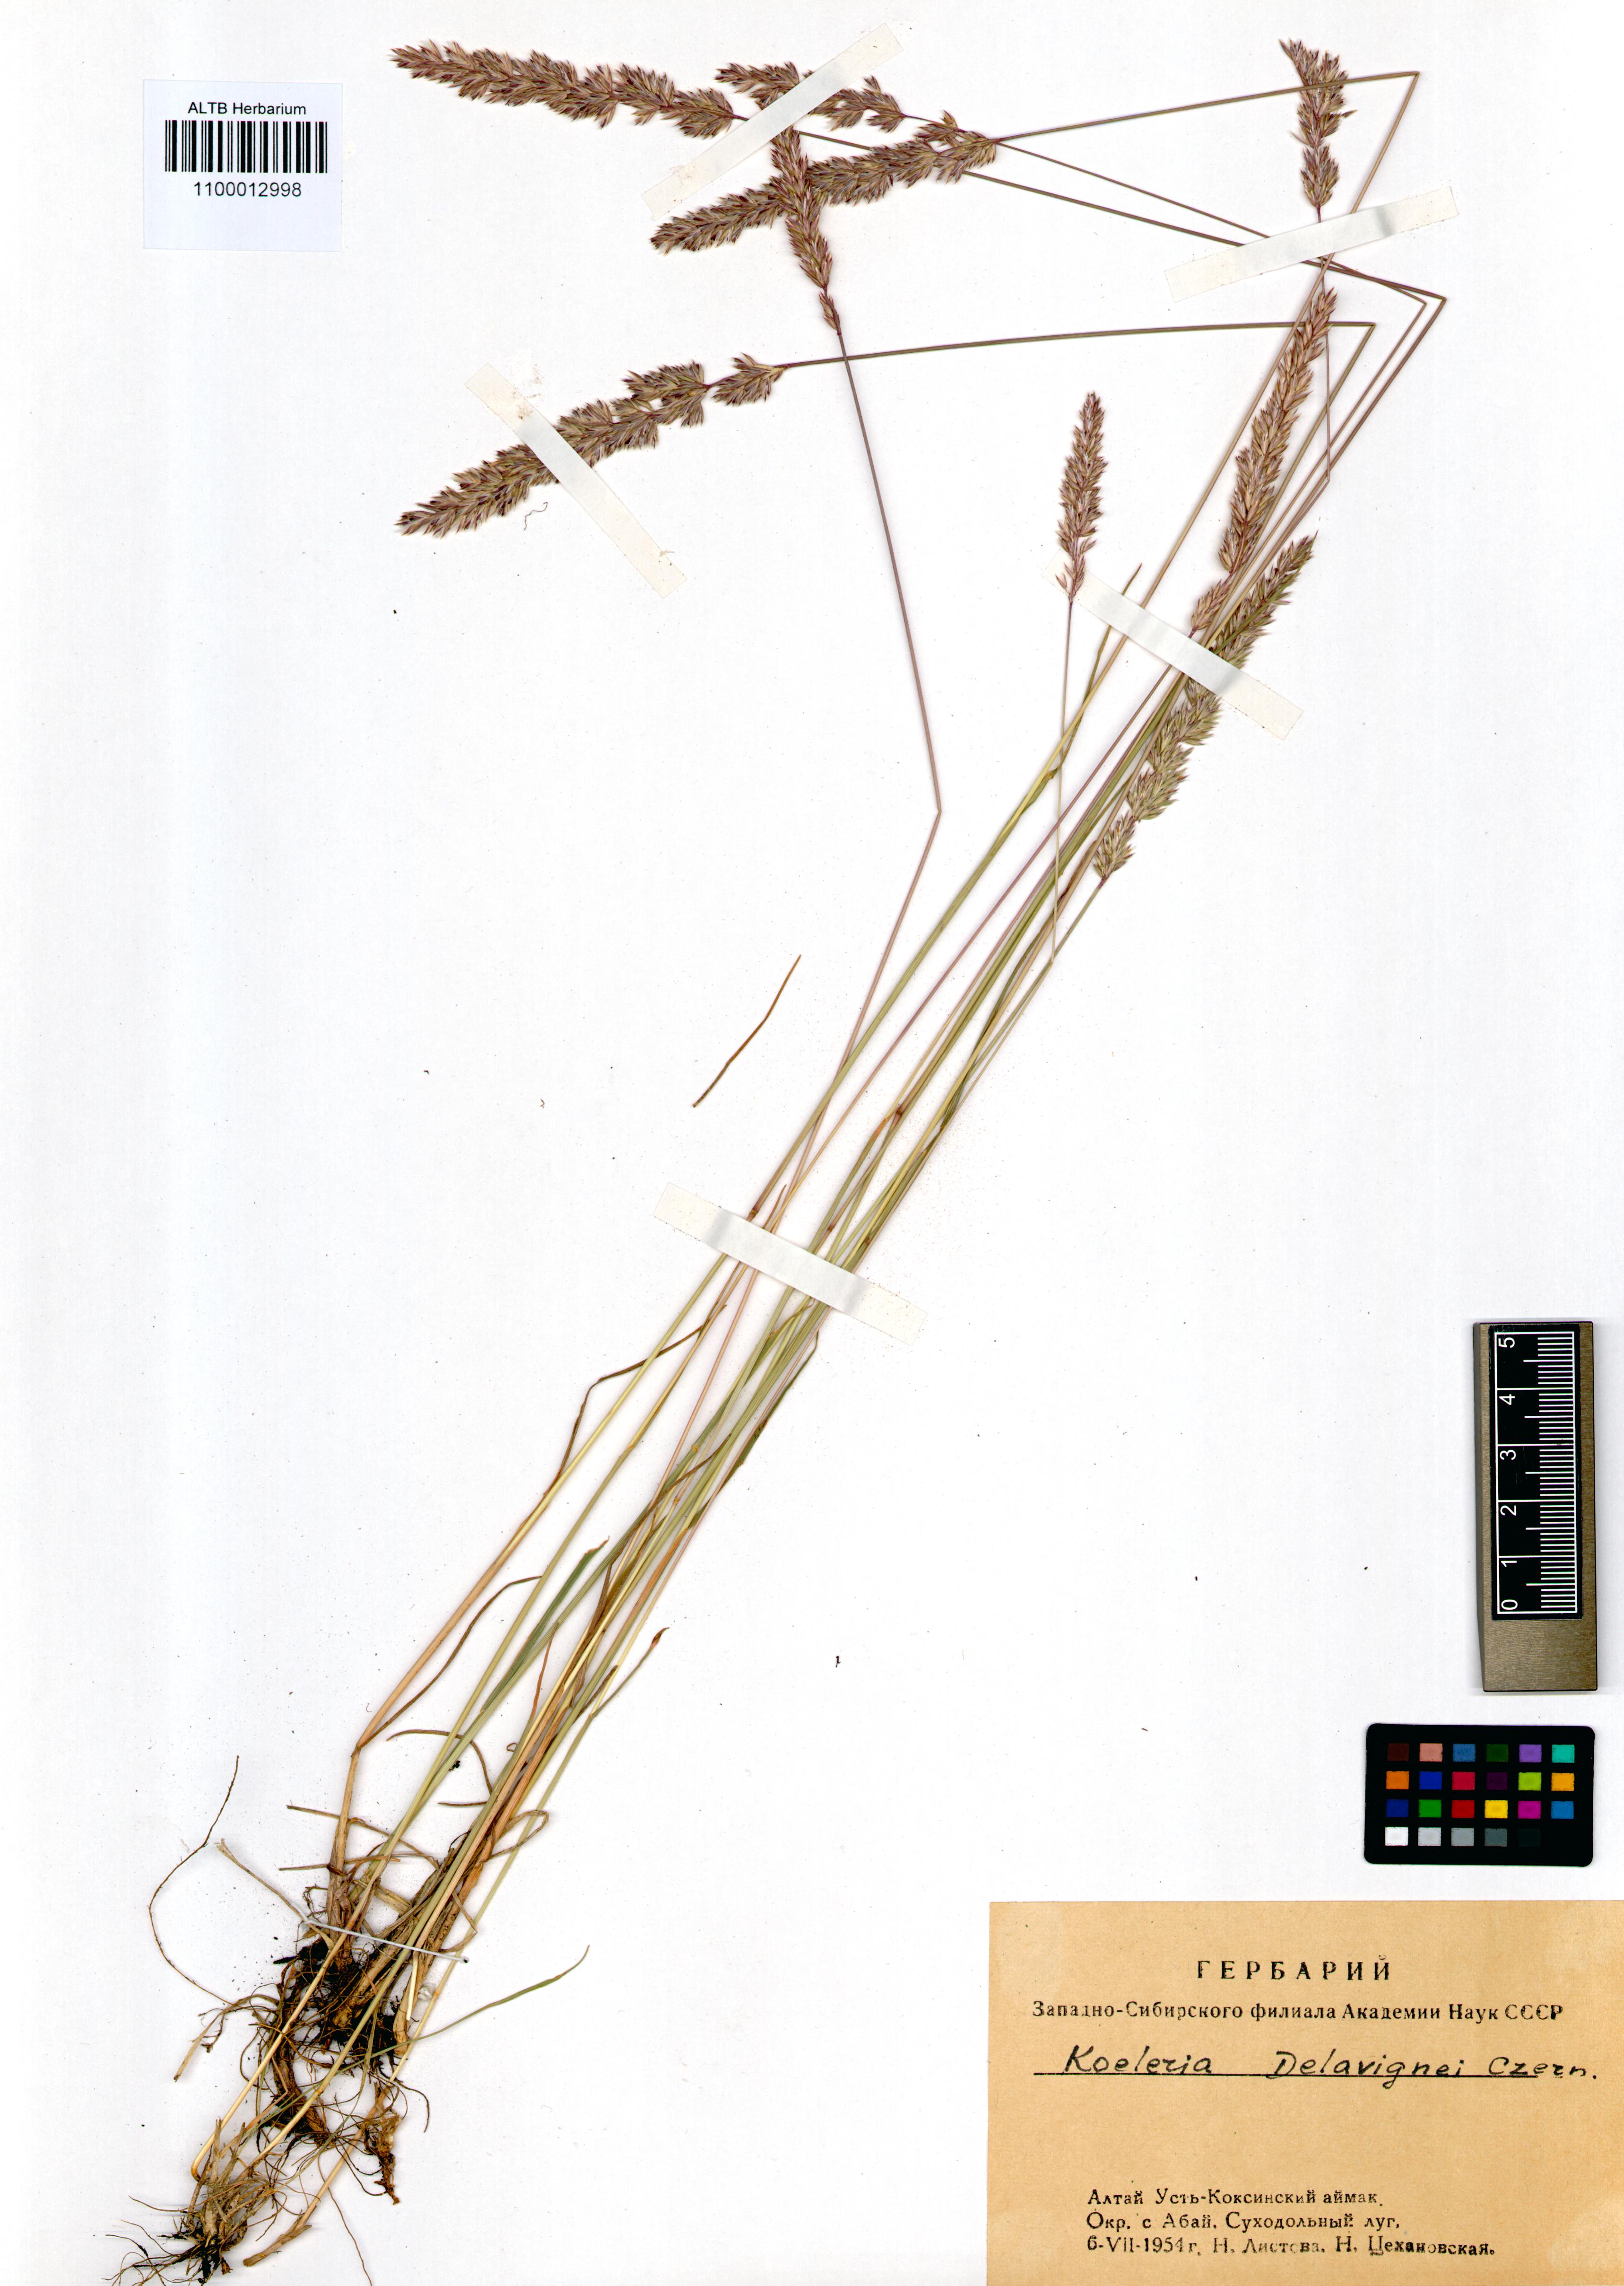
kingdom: Plantae
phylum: Tracheophyta
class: Liliopsida
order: Poales
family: Poaceae
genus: Koeleria
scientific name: Koeleria delavignei
